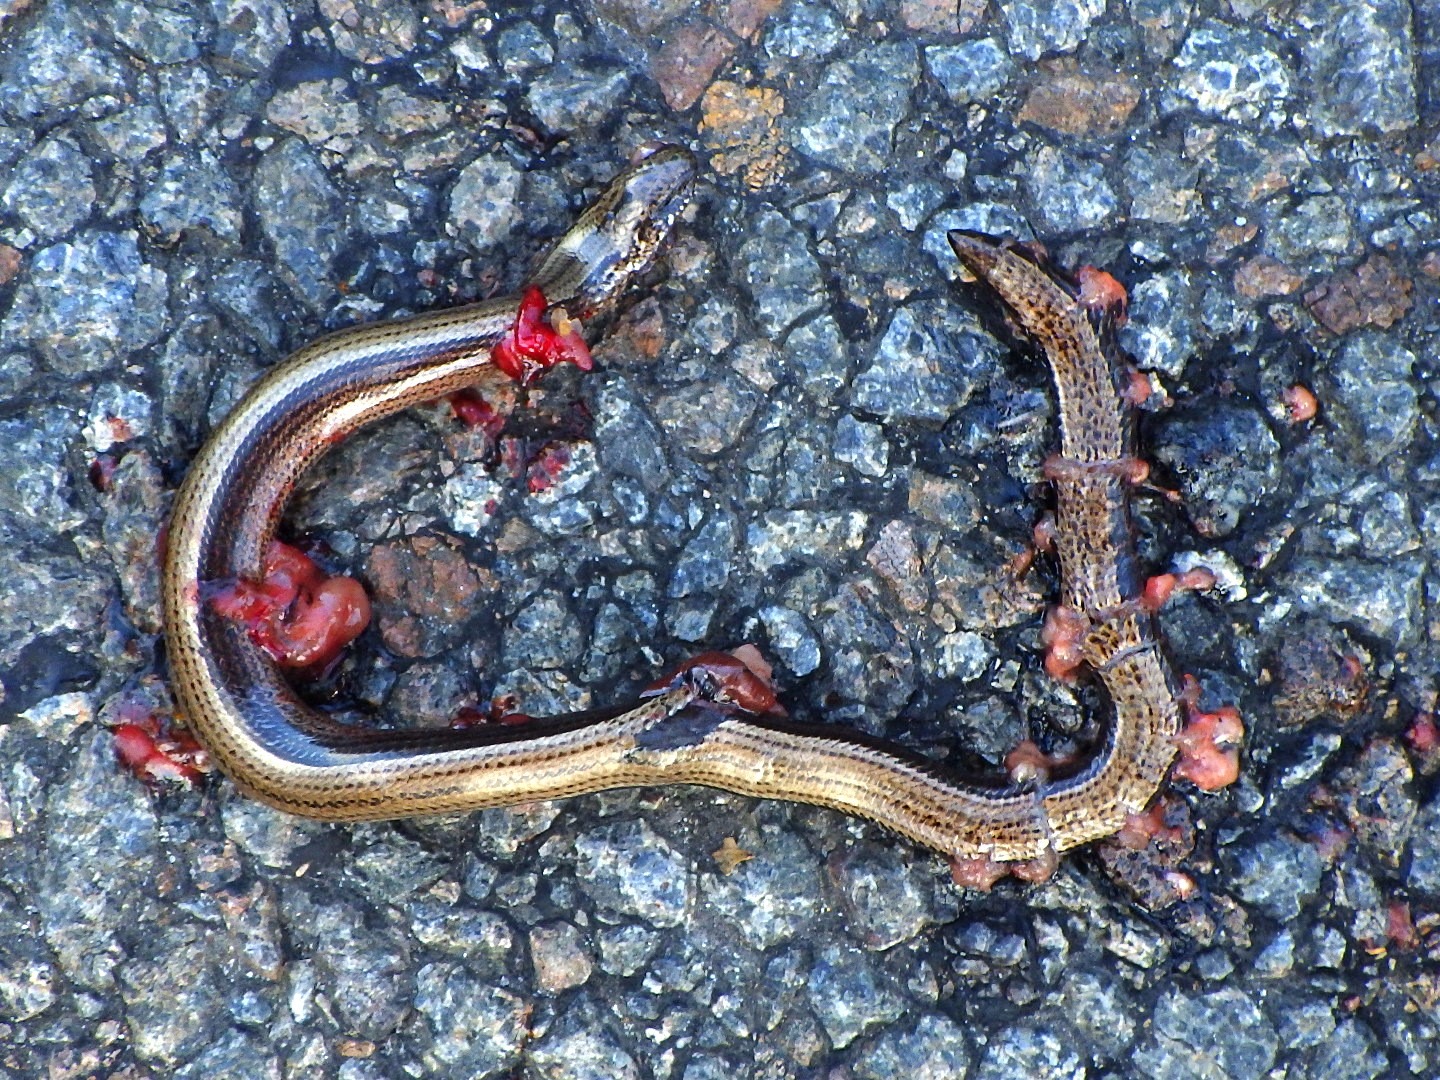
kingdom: Animalia
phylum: Chordata
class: Squamata
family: Anguidae
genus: Anguis
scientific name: Anguis fragilis
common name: Stålorm
